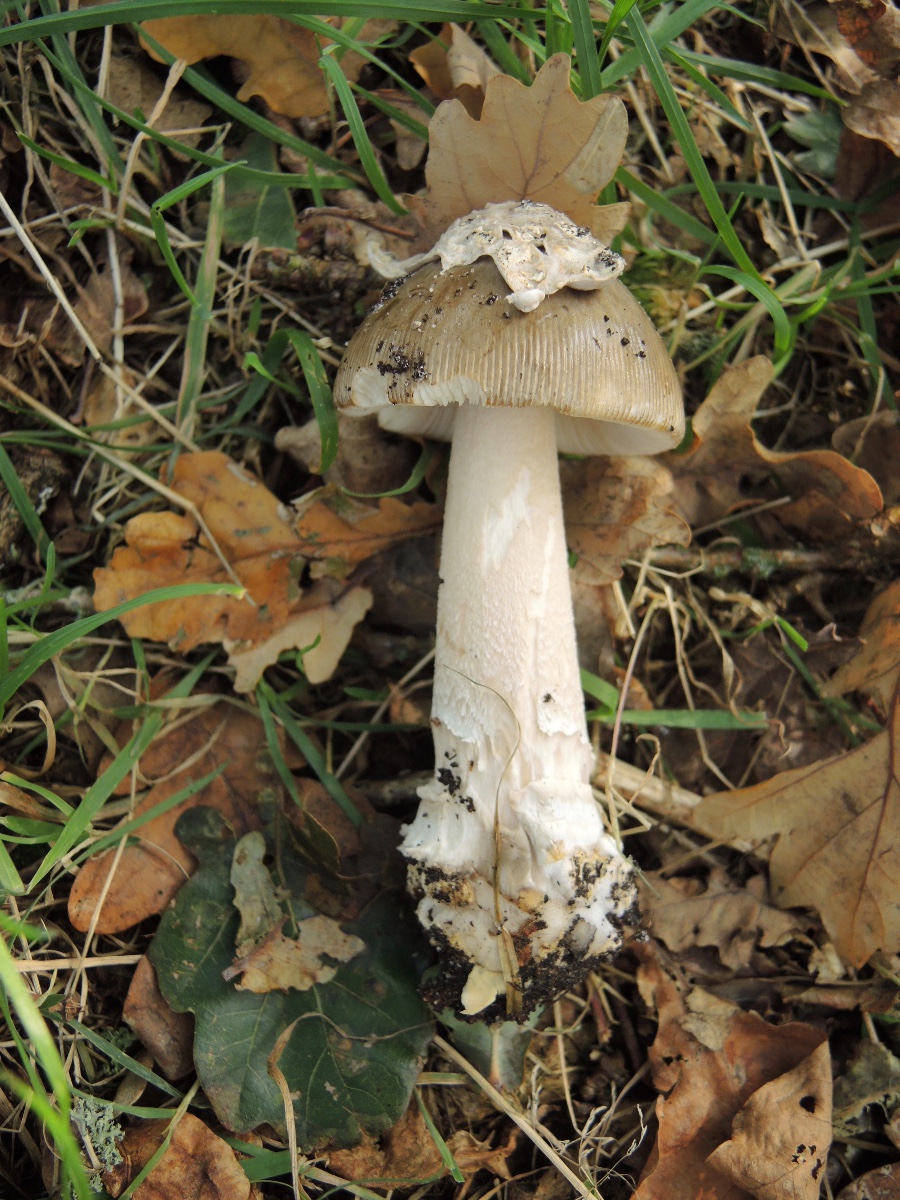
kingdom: Fungi
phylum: Basidiomycota
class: Agaricomycetes
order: Agaricales
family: Amanitaceae
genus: Amanita
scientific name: Amanita submembranacea
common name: gråspættet kam-fluesvamp
